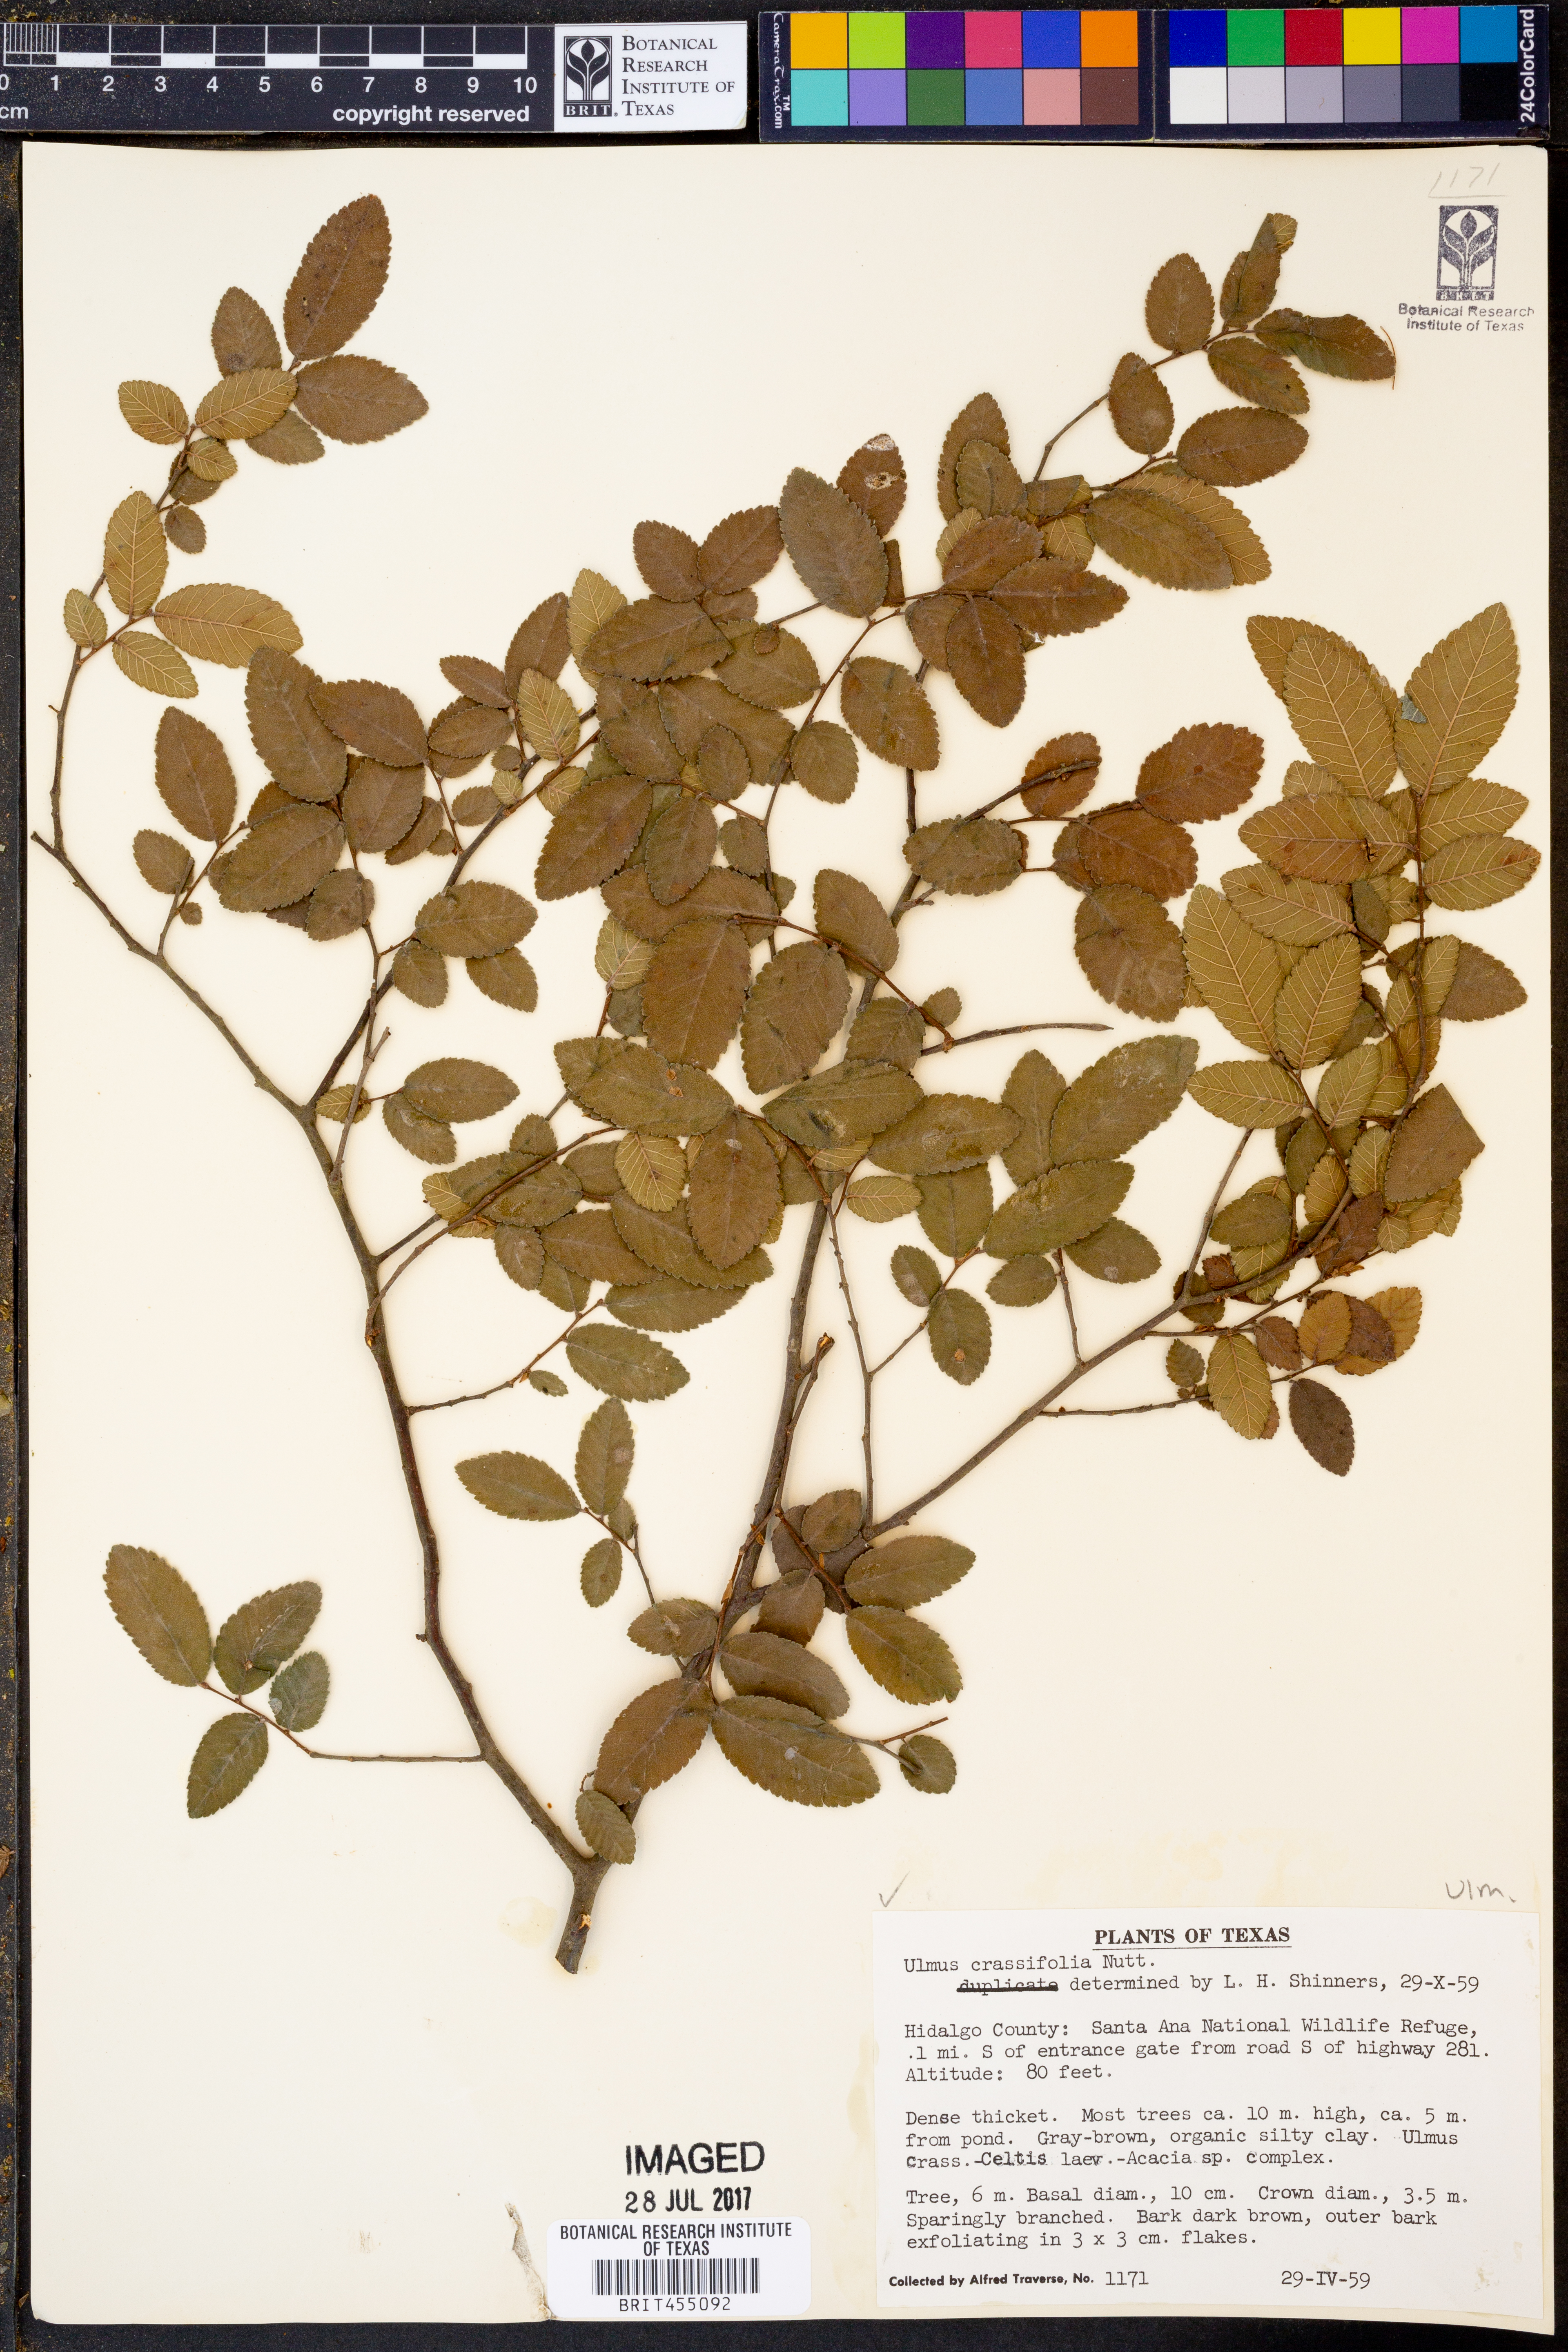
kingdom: Plantae
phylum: Tracheophyta
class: Magnoliopsida
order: Rosales
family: Ulmaceae
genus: Ulmus
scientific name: Ulmus crassifolia
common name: Basket elm
